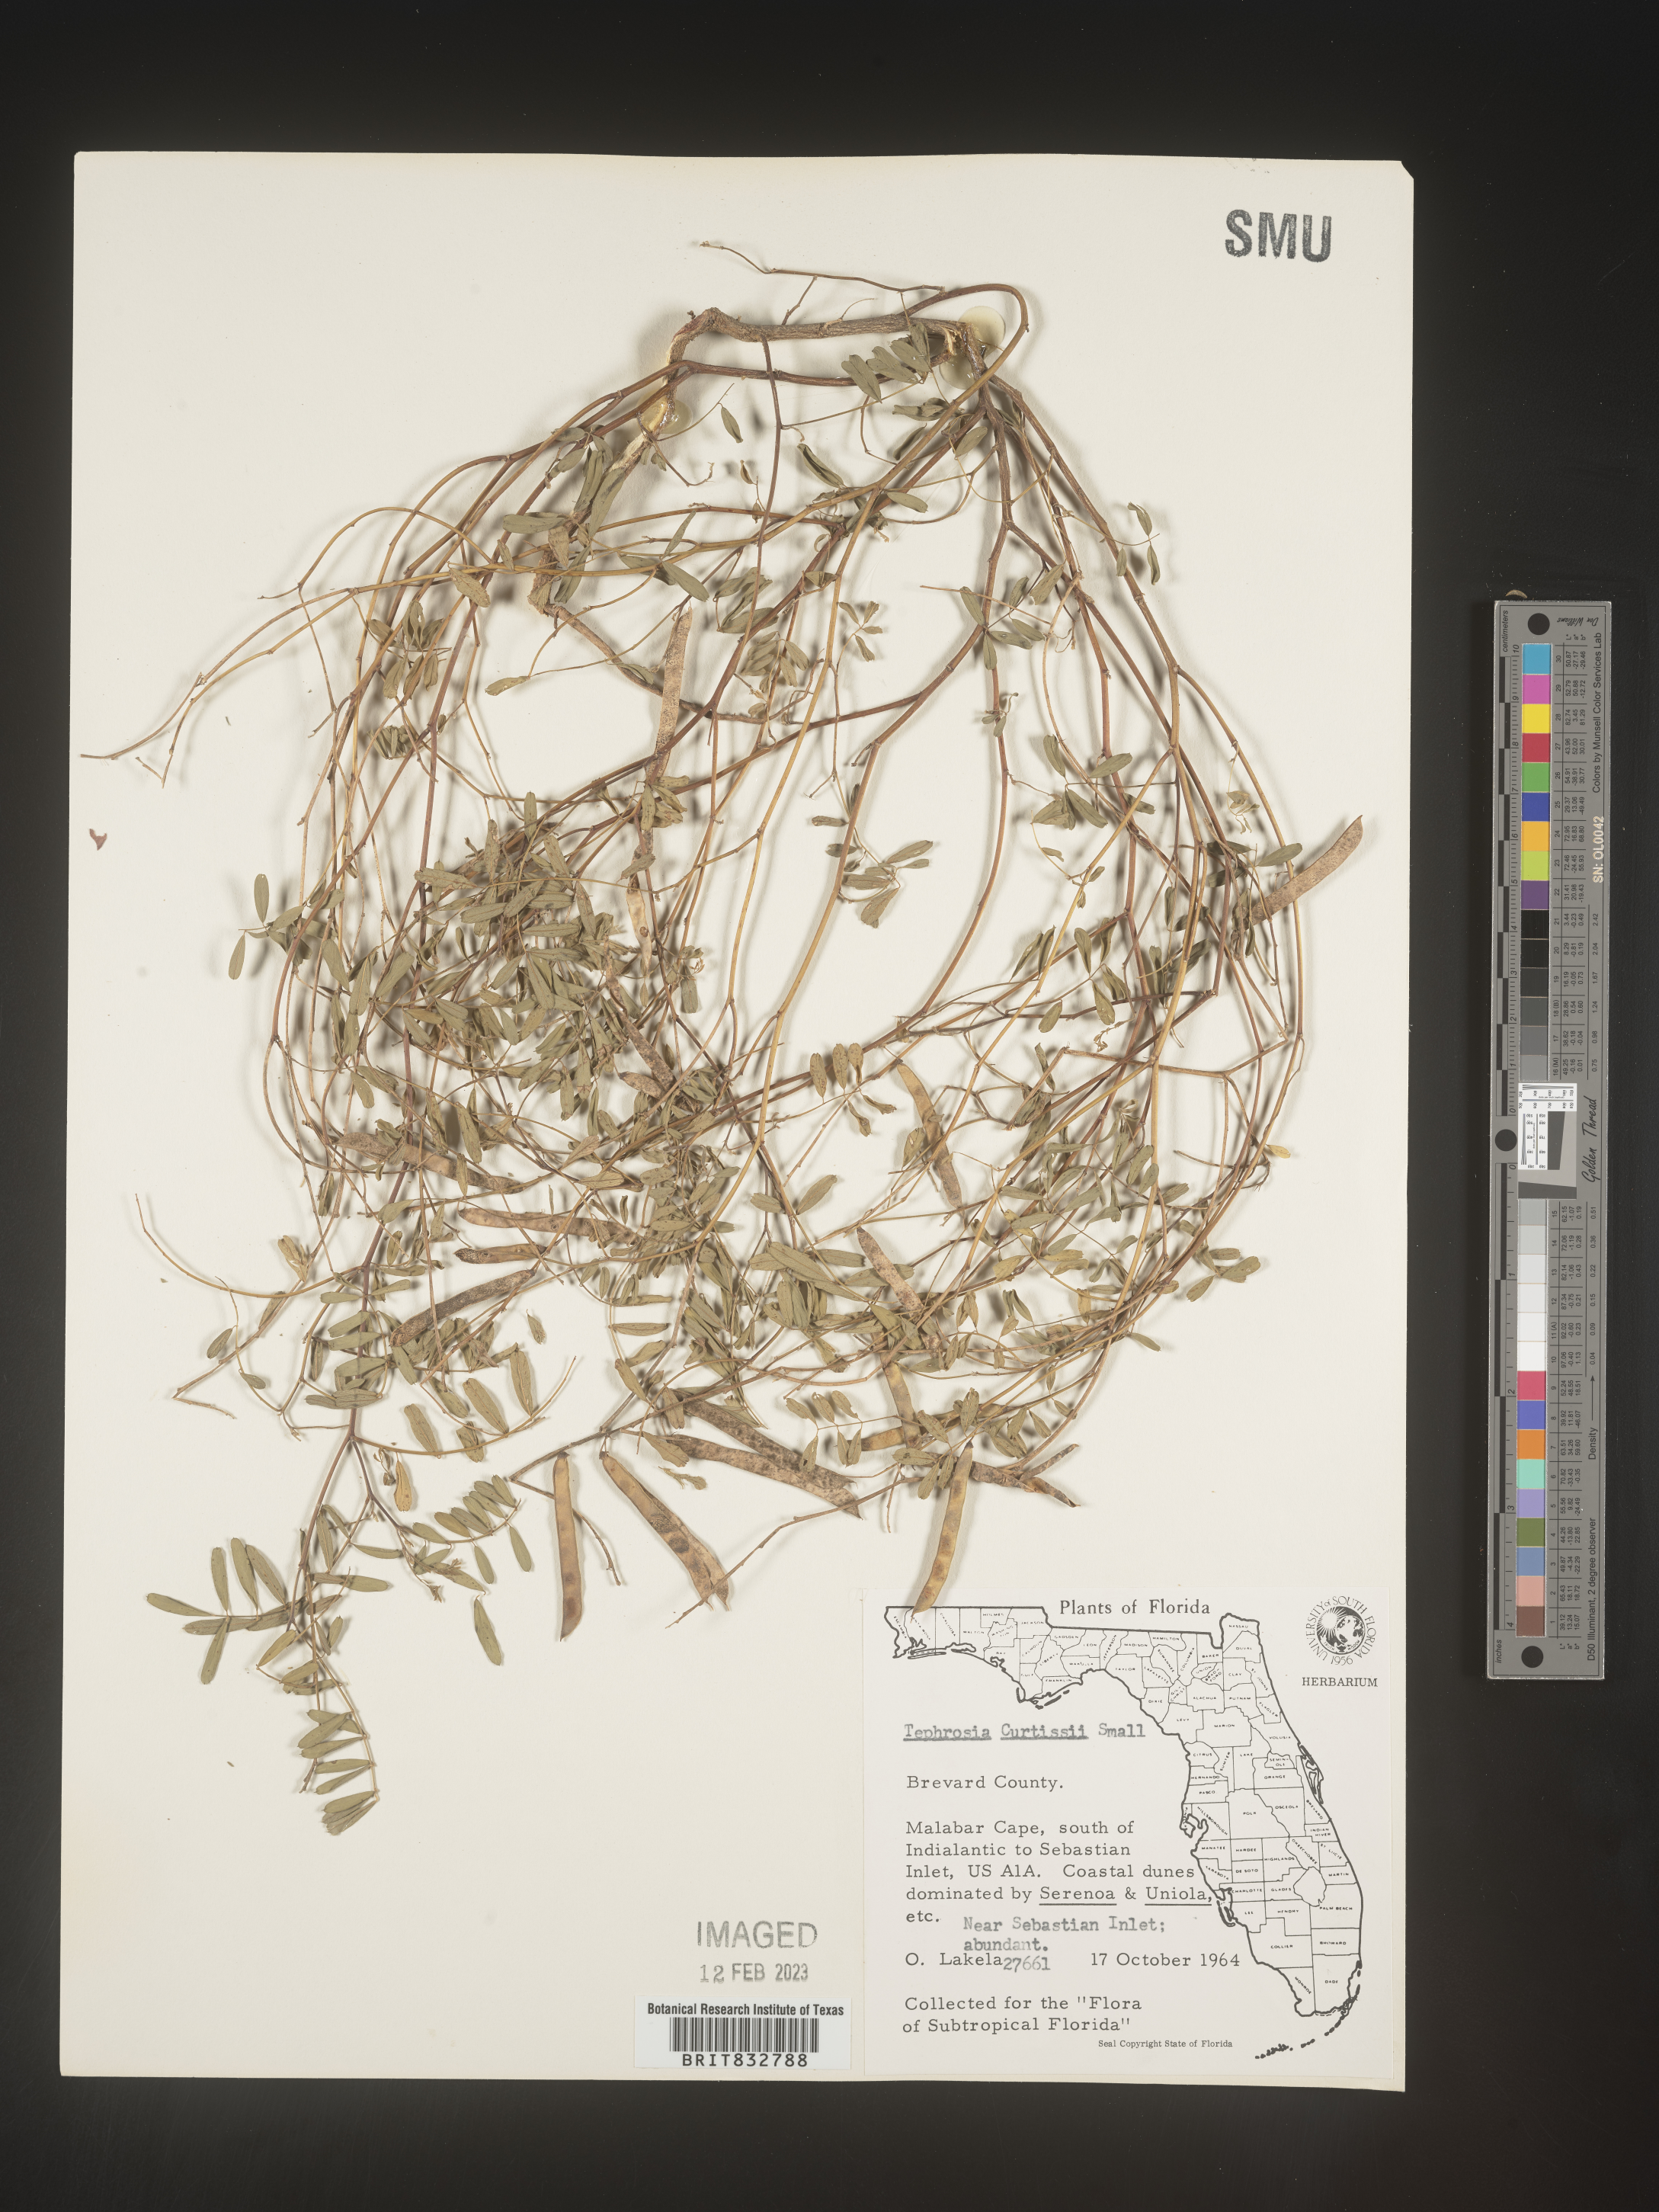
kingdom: Plantae
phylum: Tracheophyta
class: Magnoliopsida
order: Fabales
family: Fabaceae
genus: Tephrosia
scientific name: Tephrosia angustissima
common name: Devil's shoestring
